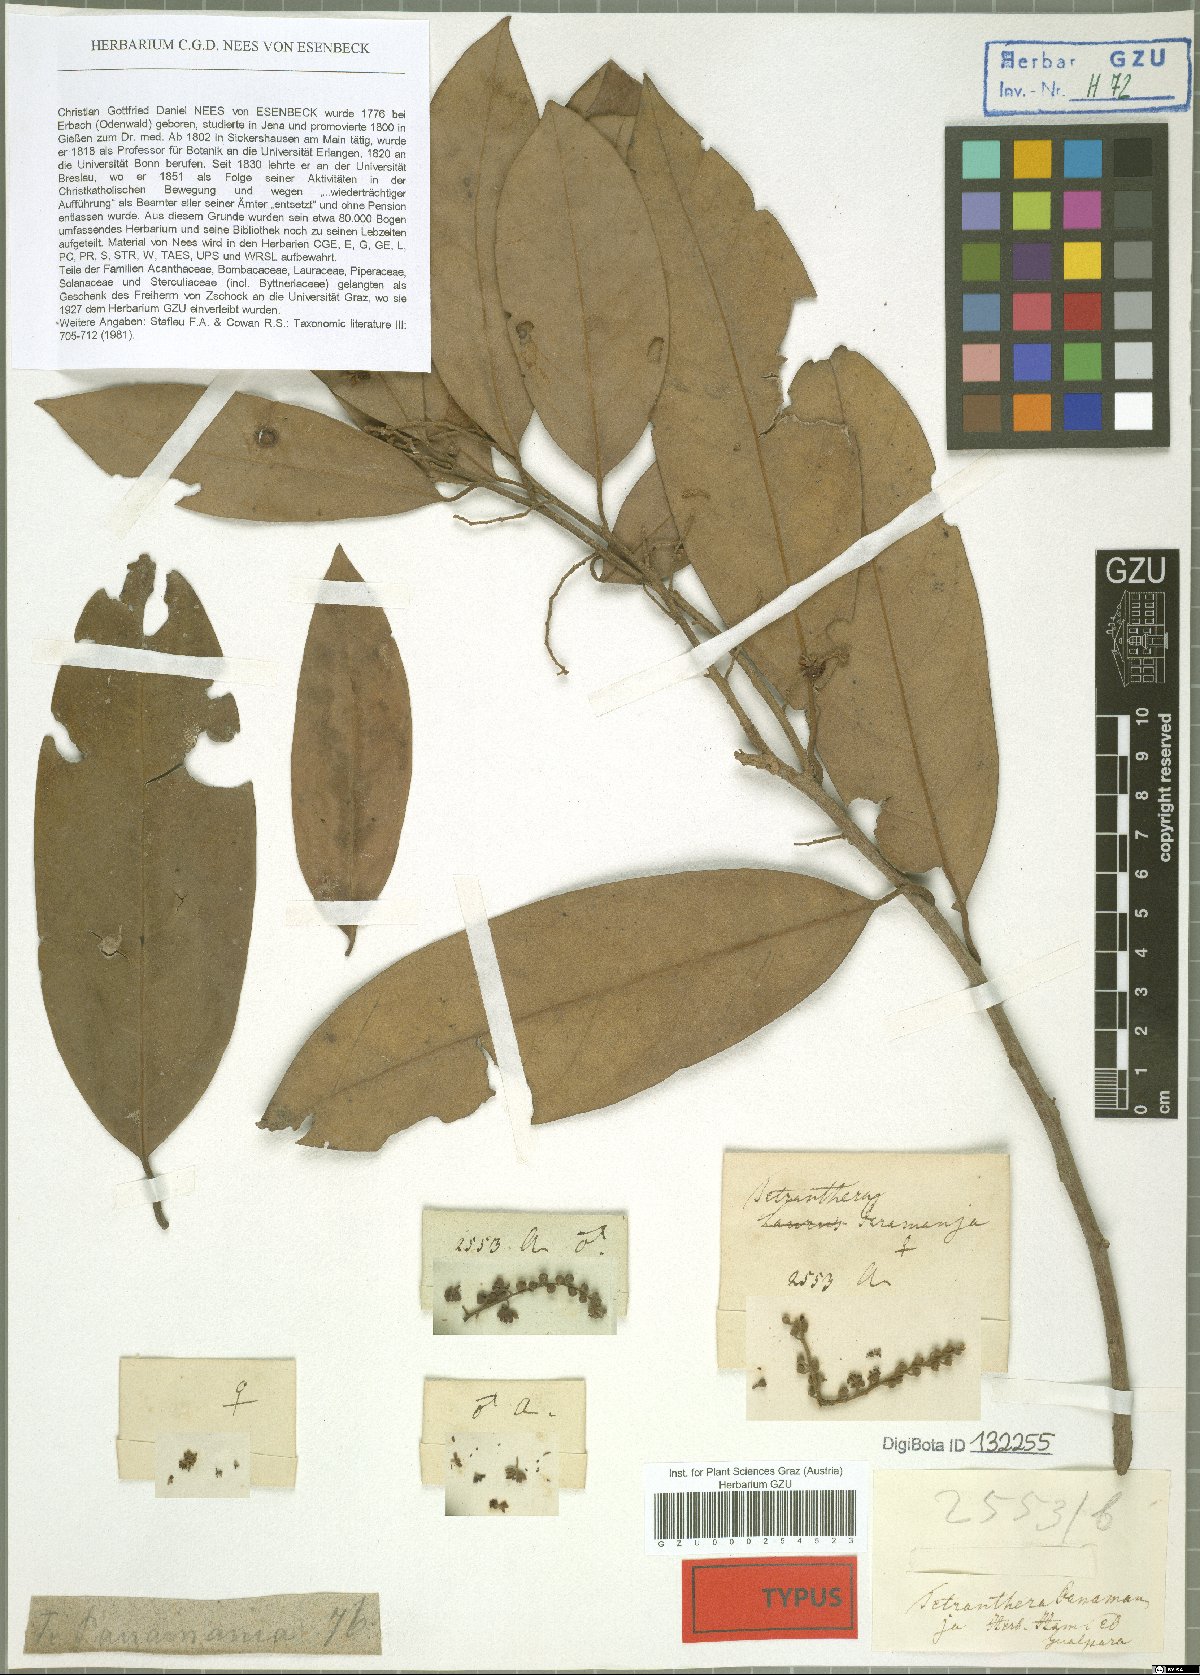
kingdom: Plantae
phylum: Tracheophyta
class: Magnoliopsida
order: Laurales
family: Lauraceae
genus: Litsea
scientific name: Litsea panamanja
